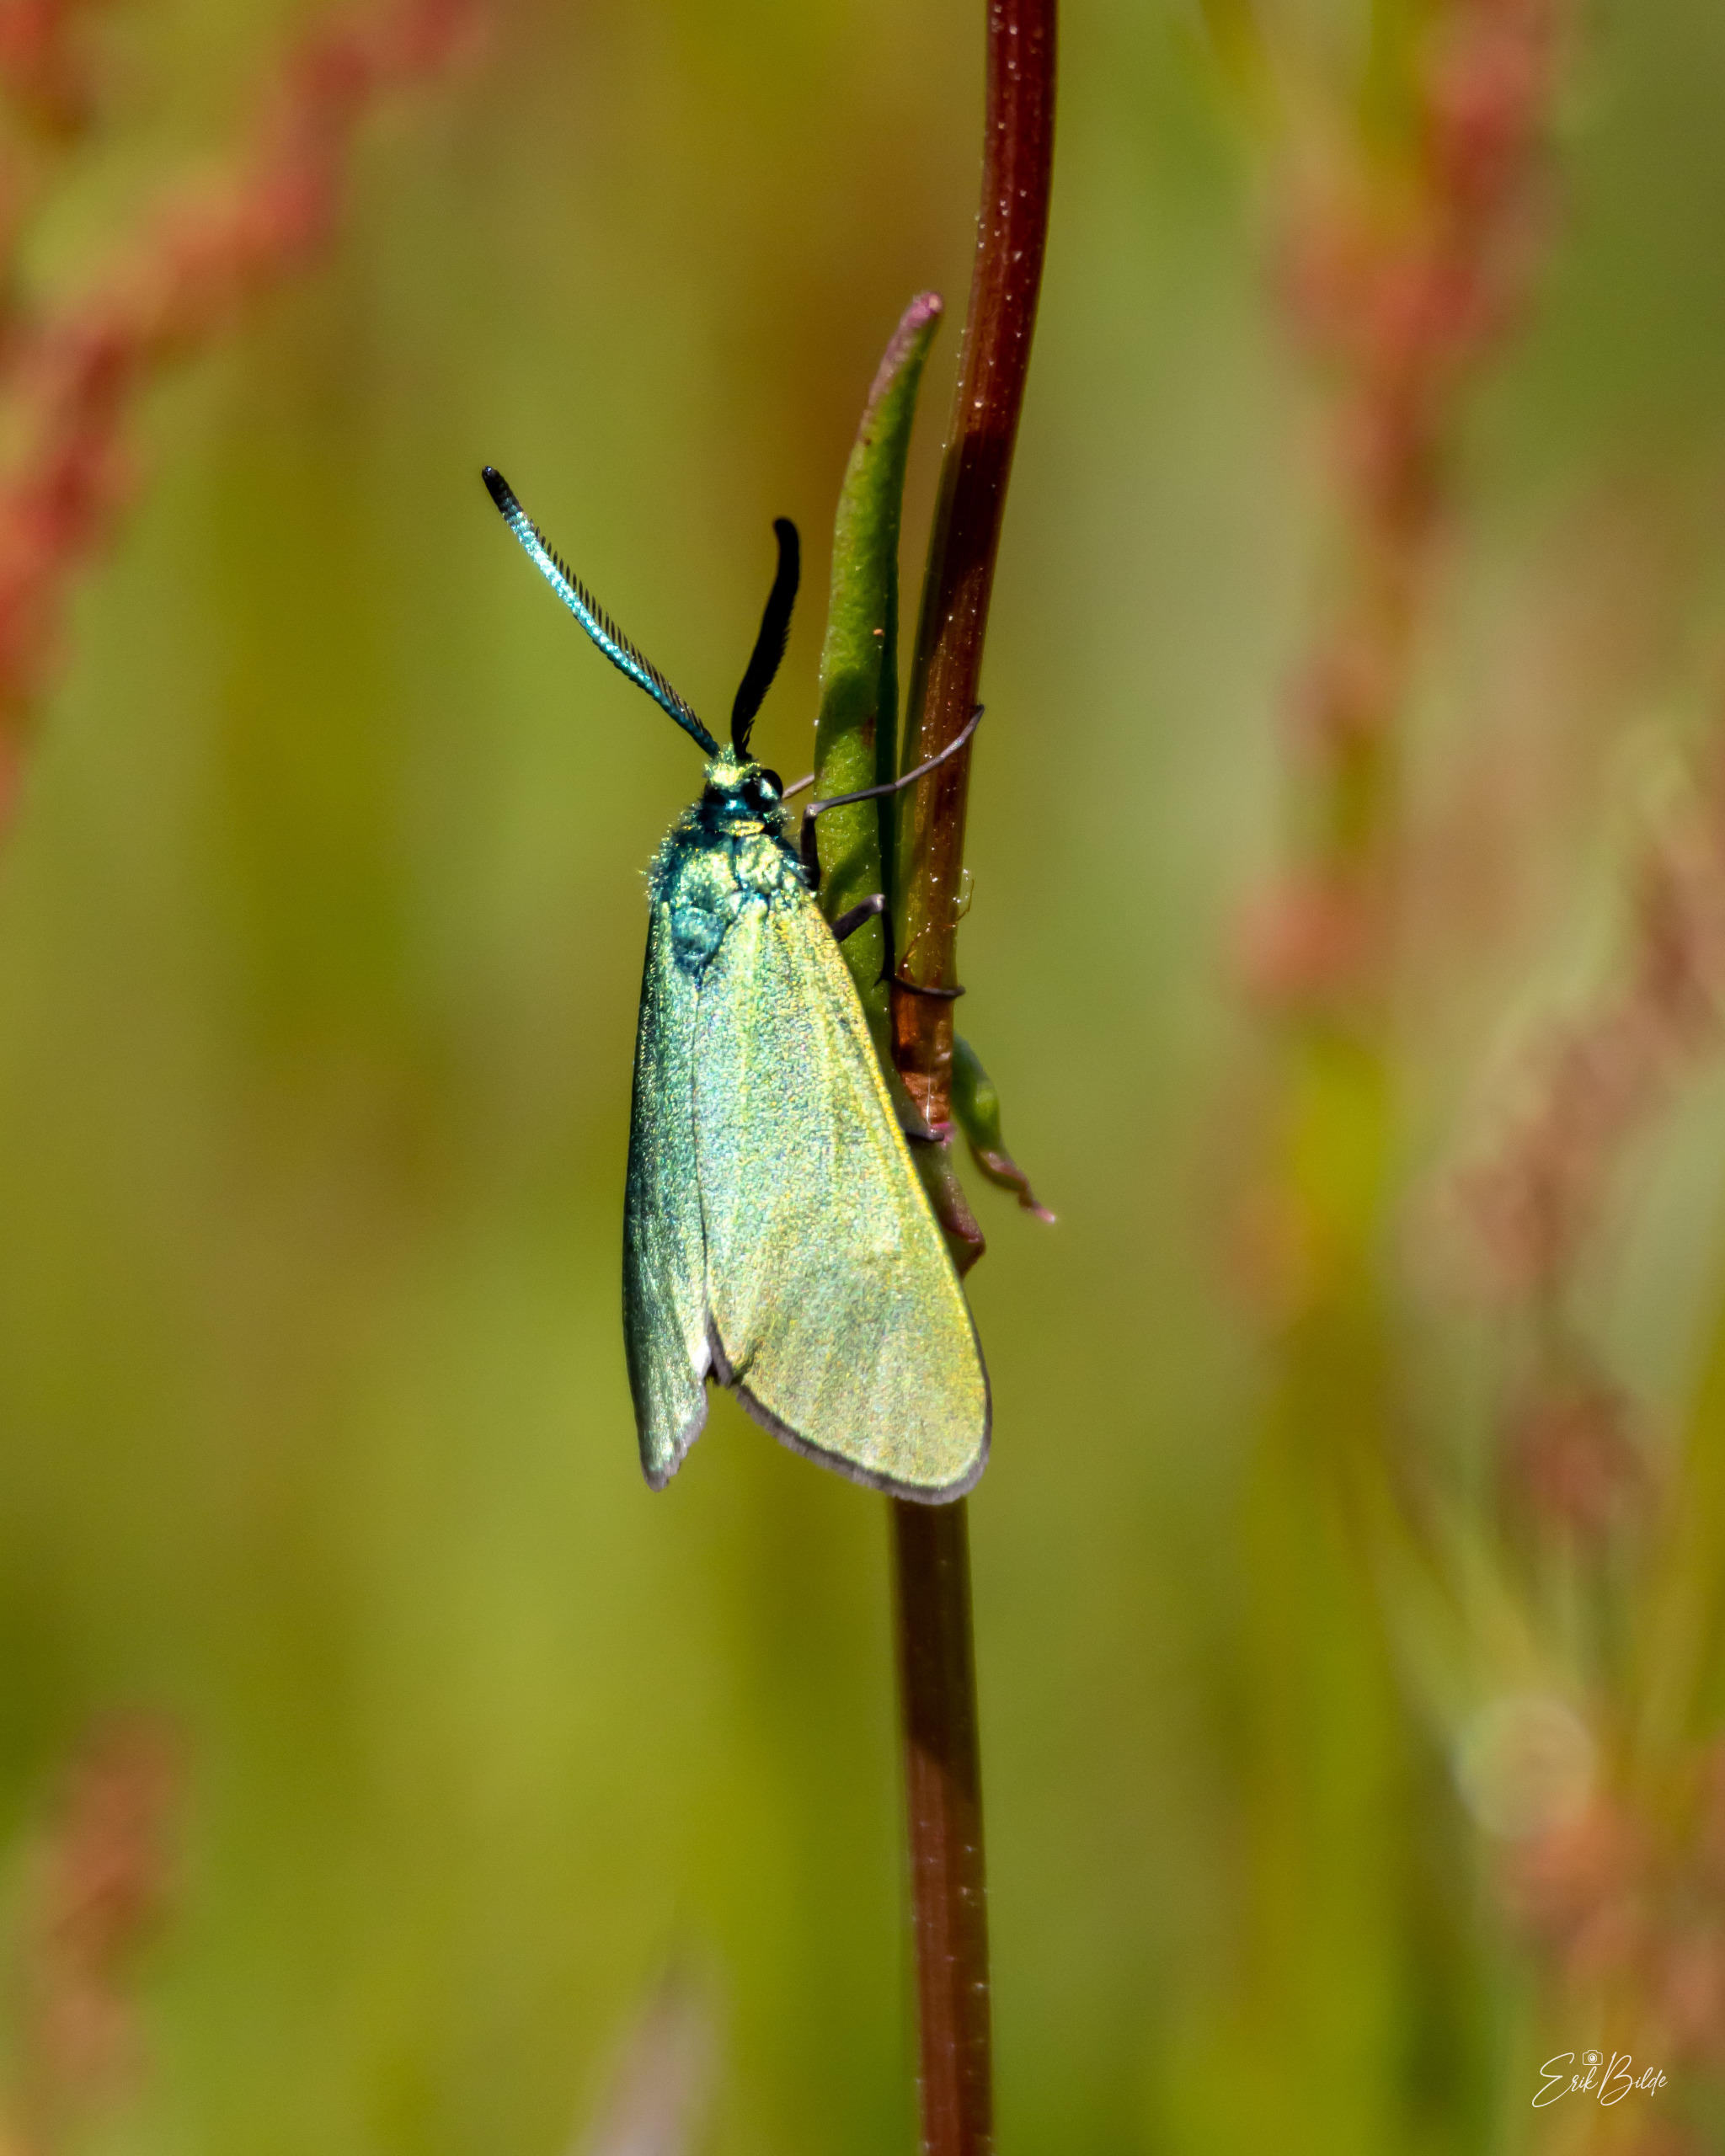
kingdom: Animalia
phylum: Arthropoda
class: Insecta
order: Lepidoptera
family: Zygaenidae
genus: Adscita
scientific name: Adscita statices
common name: Metalvinge
